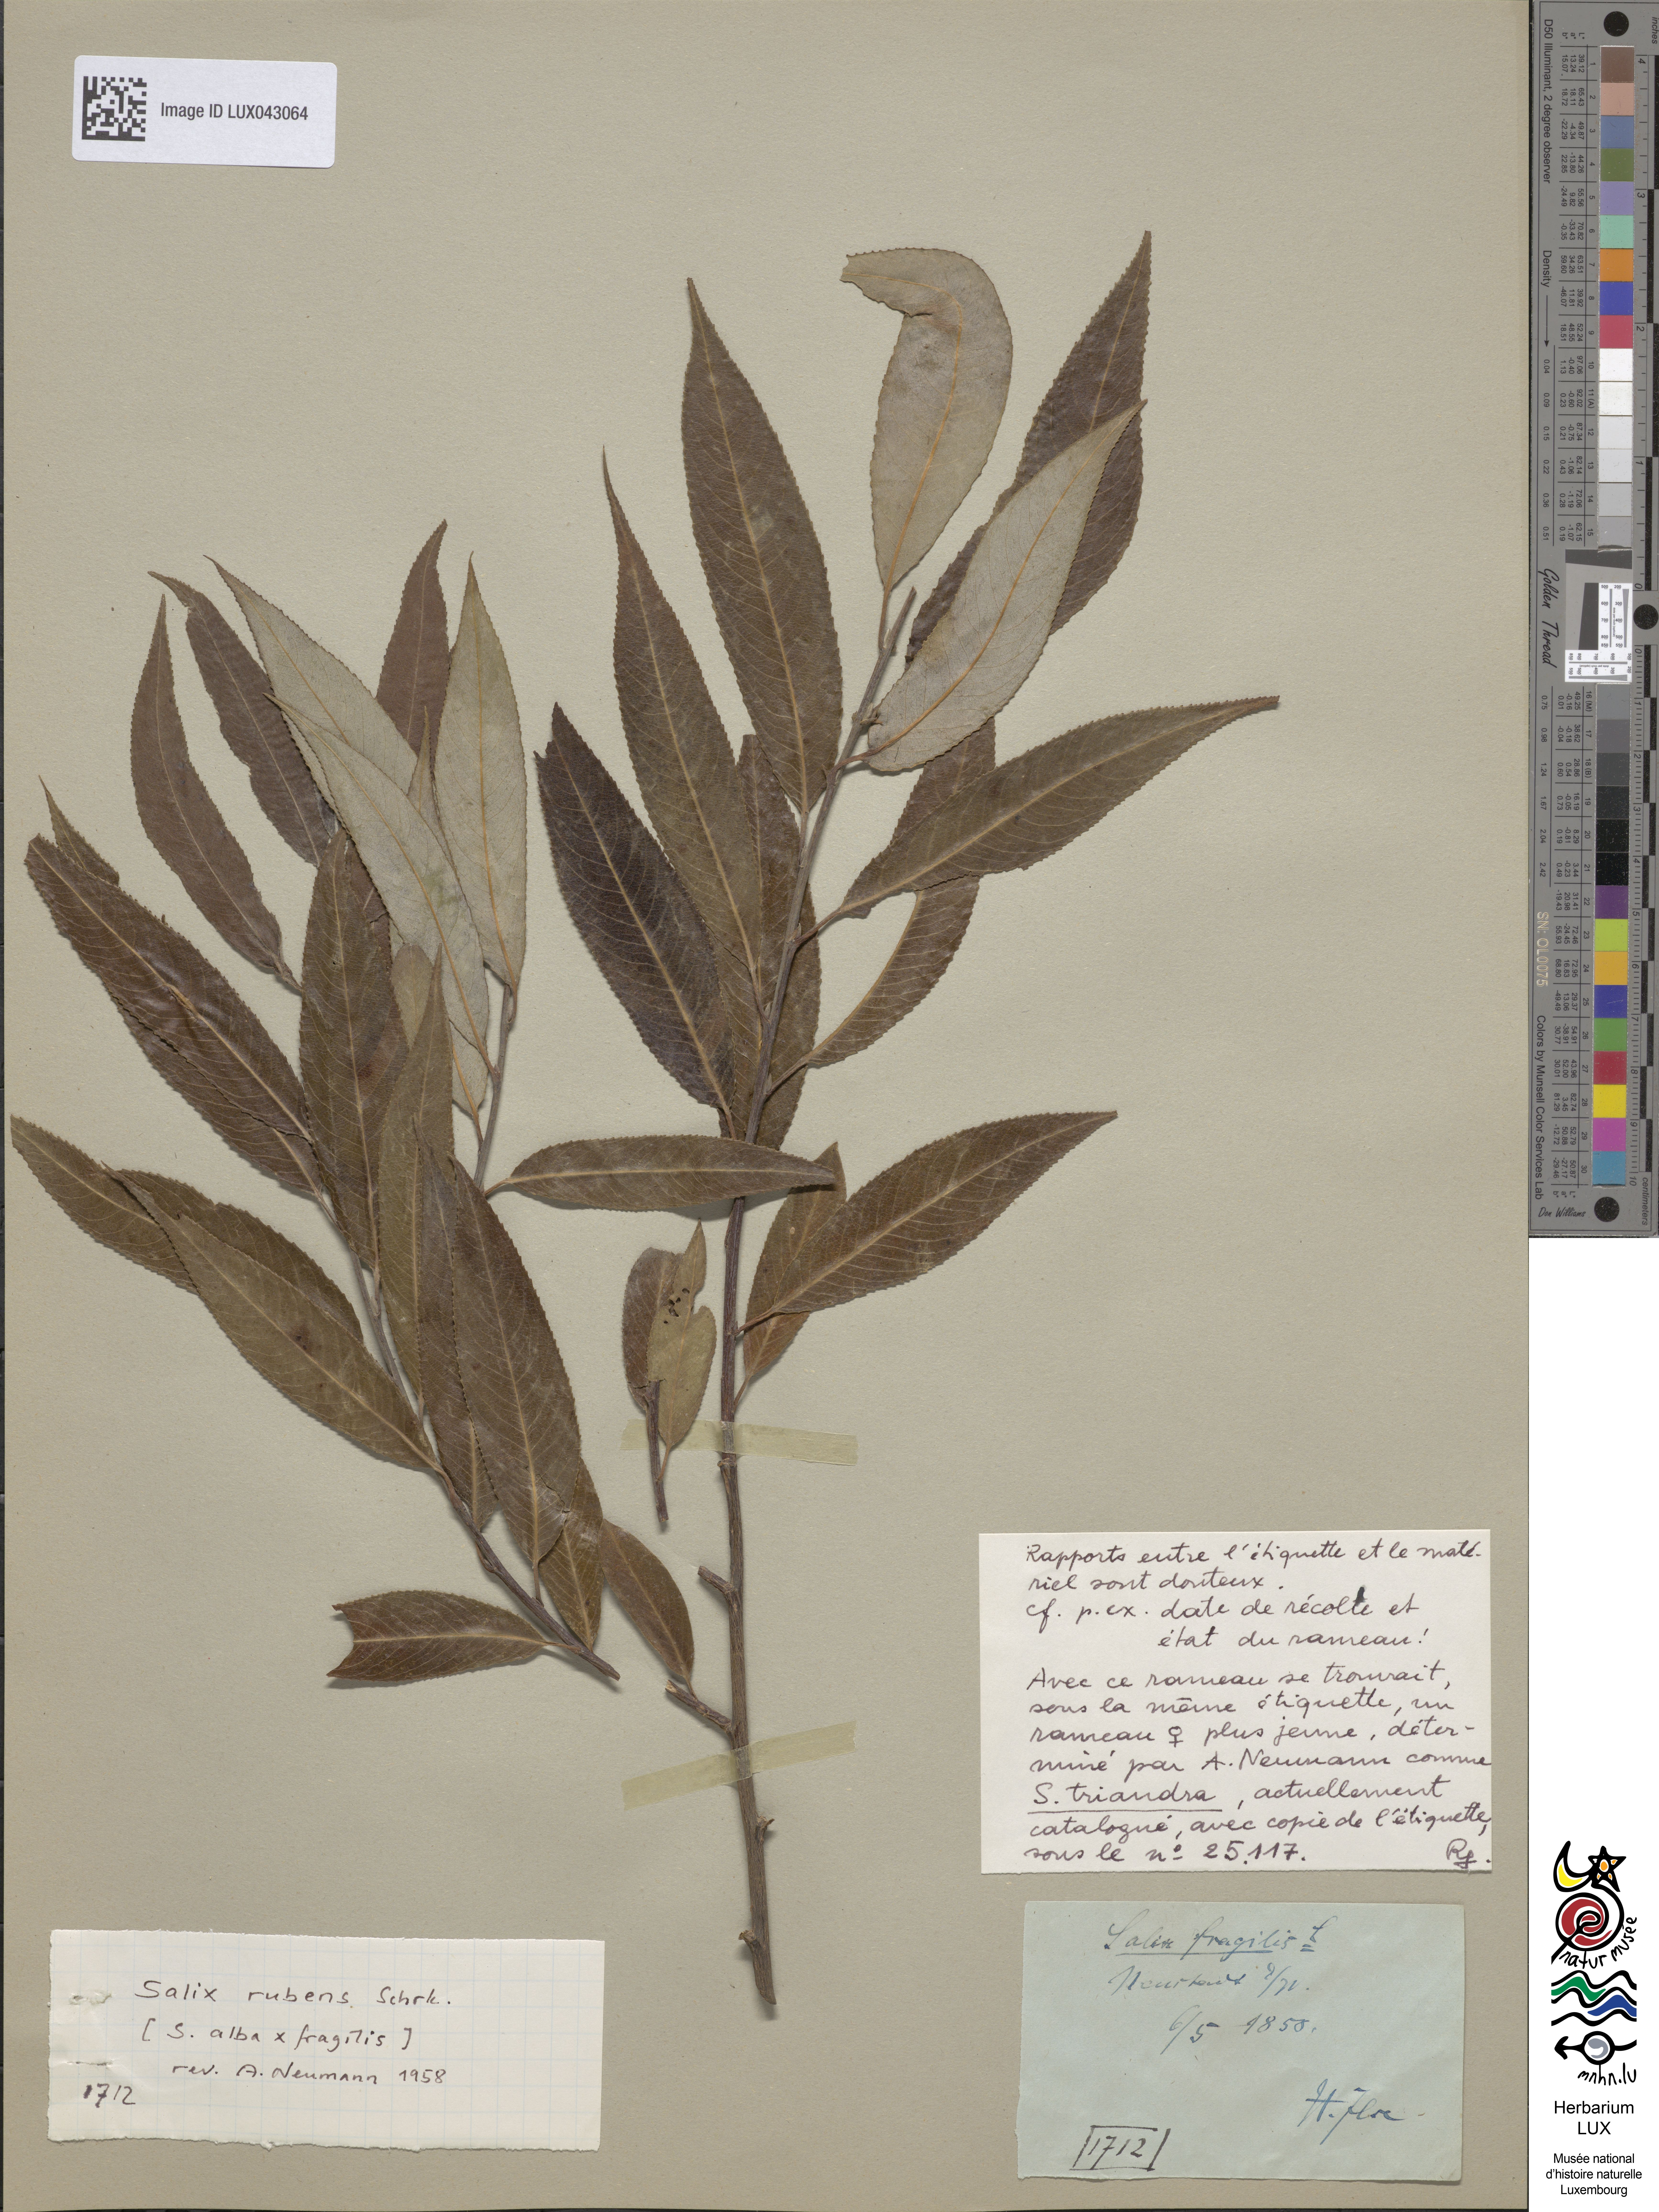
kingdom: Plantae
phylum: Tracheophyta
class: Magnoliopsida
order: Malpighiales
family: Salicaceae
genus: Salix
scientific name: Salix fragilis
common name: Crack willow
